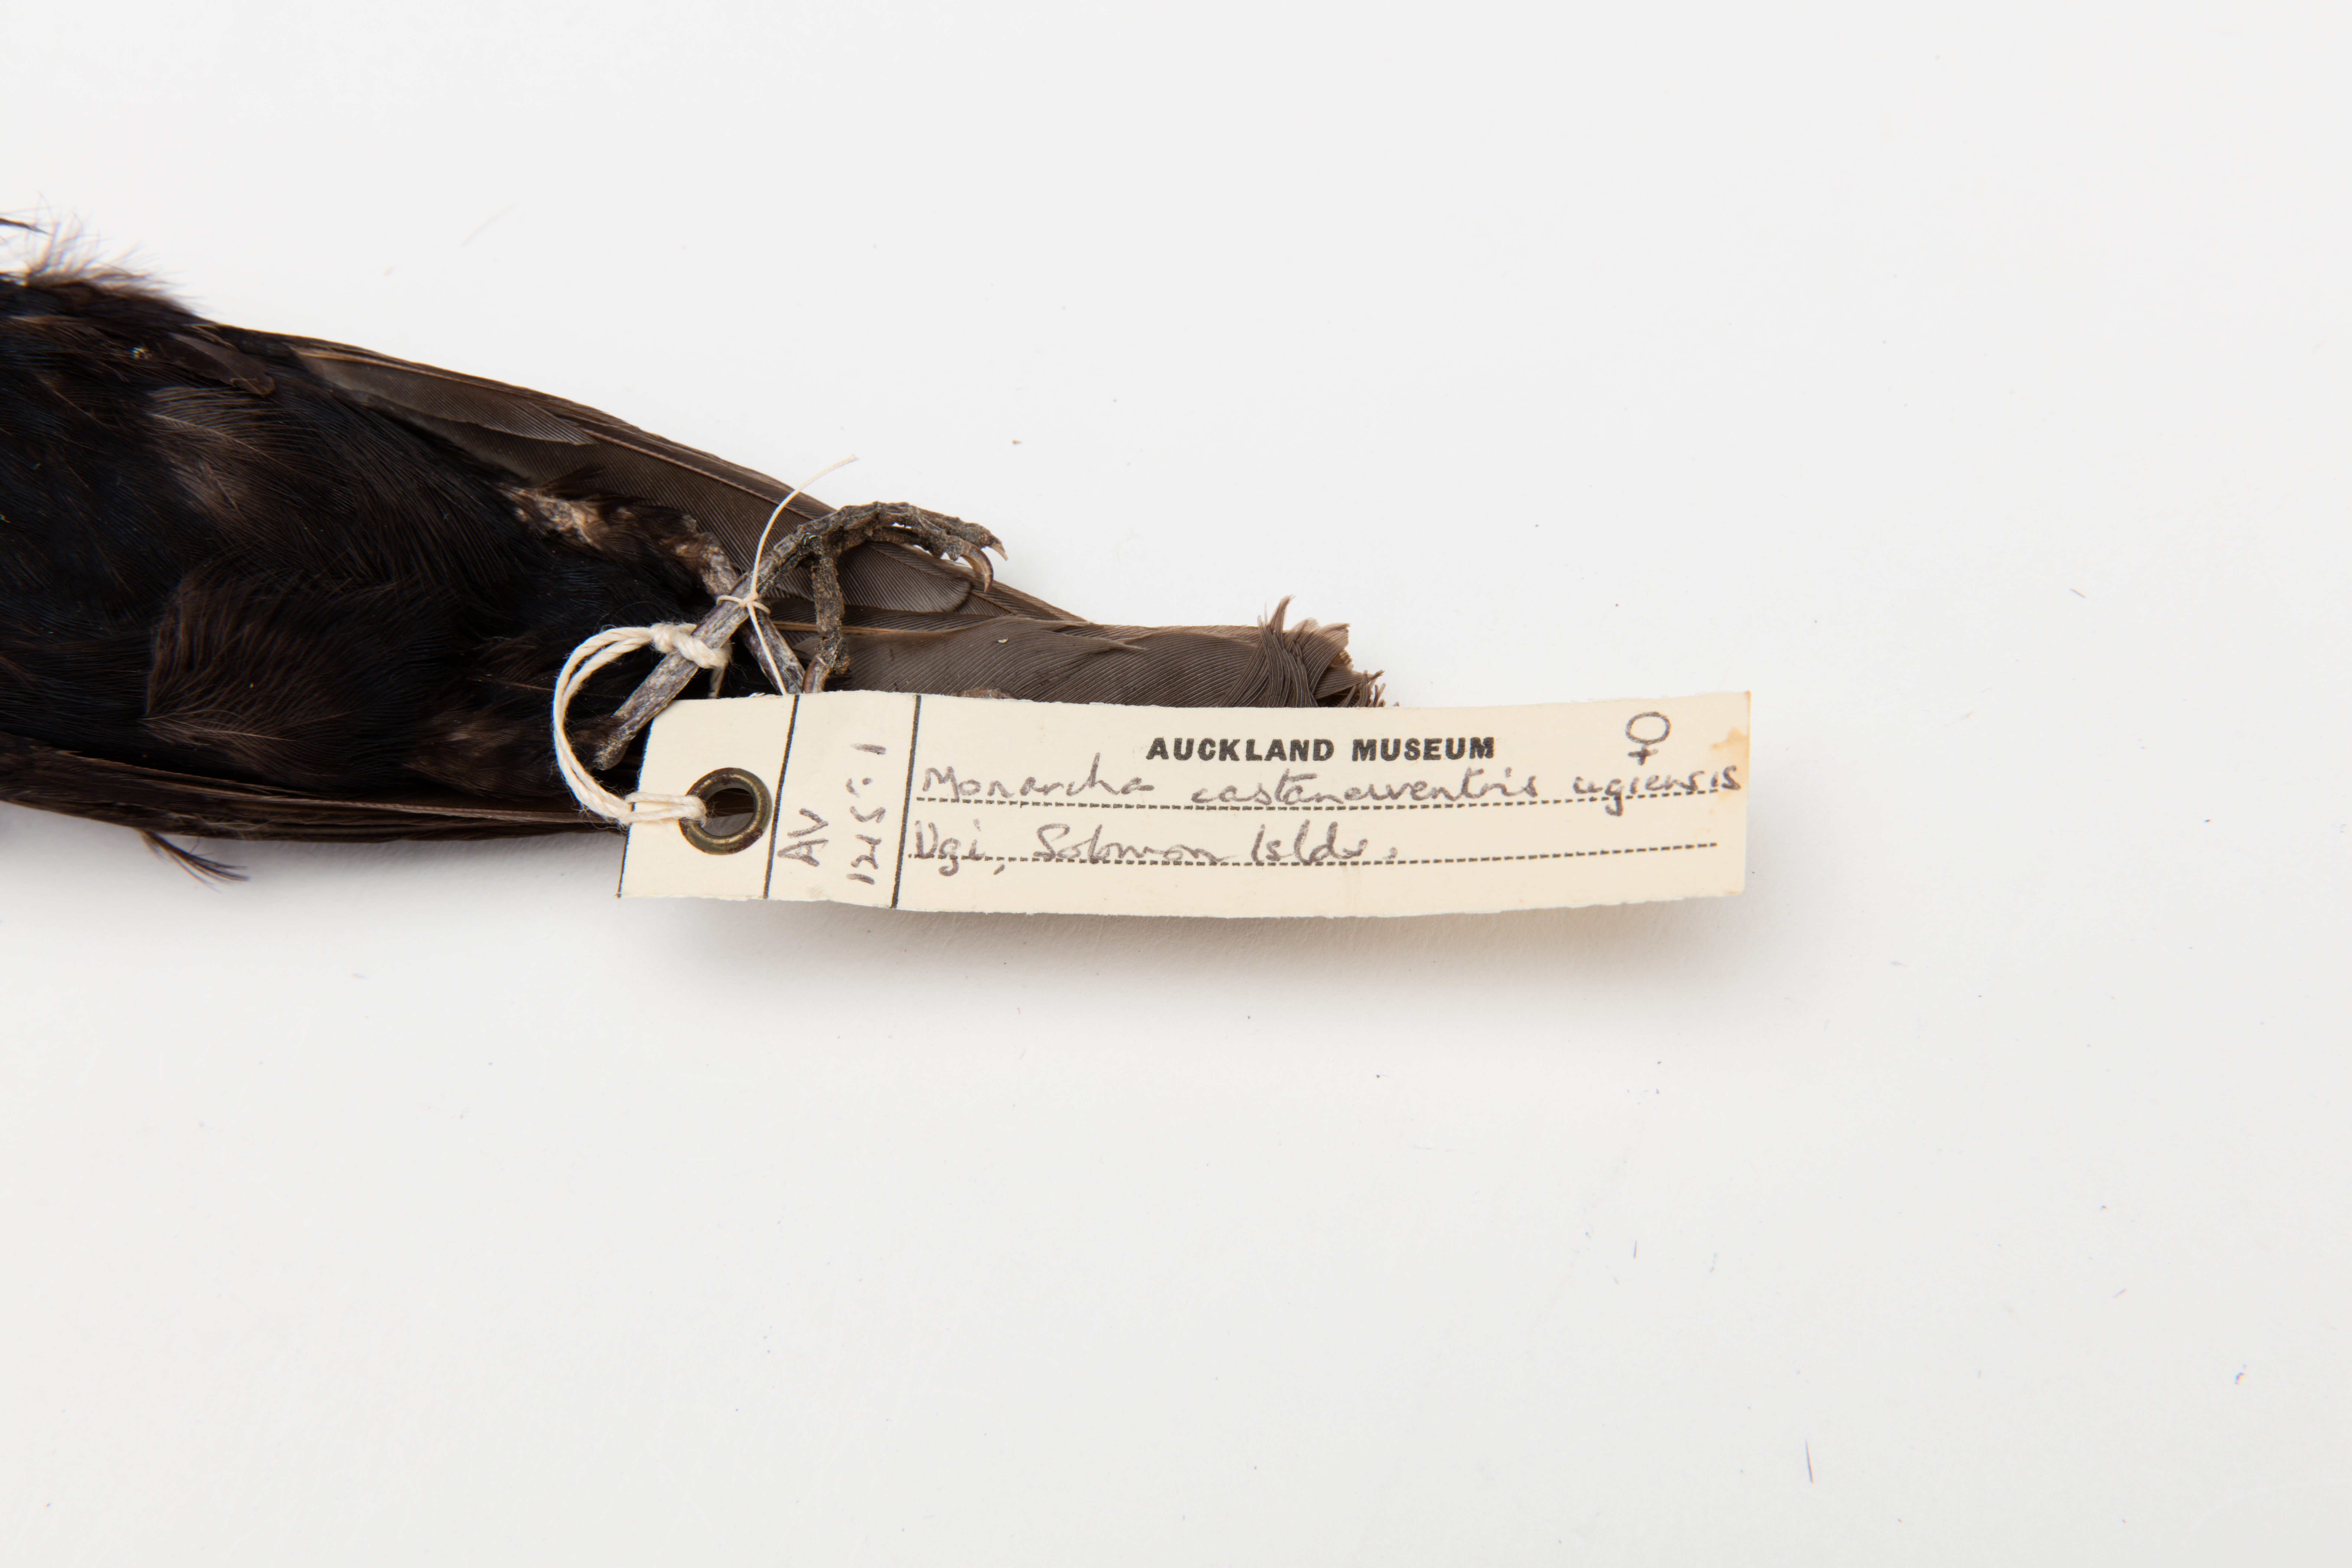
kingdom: Animalia
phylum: Chordata
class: Aves
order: Passeriformes
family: Monarchidae
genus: Monarcha
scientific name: Monarcha castaneiventris
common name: Chestnut-bellied monarch
